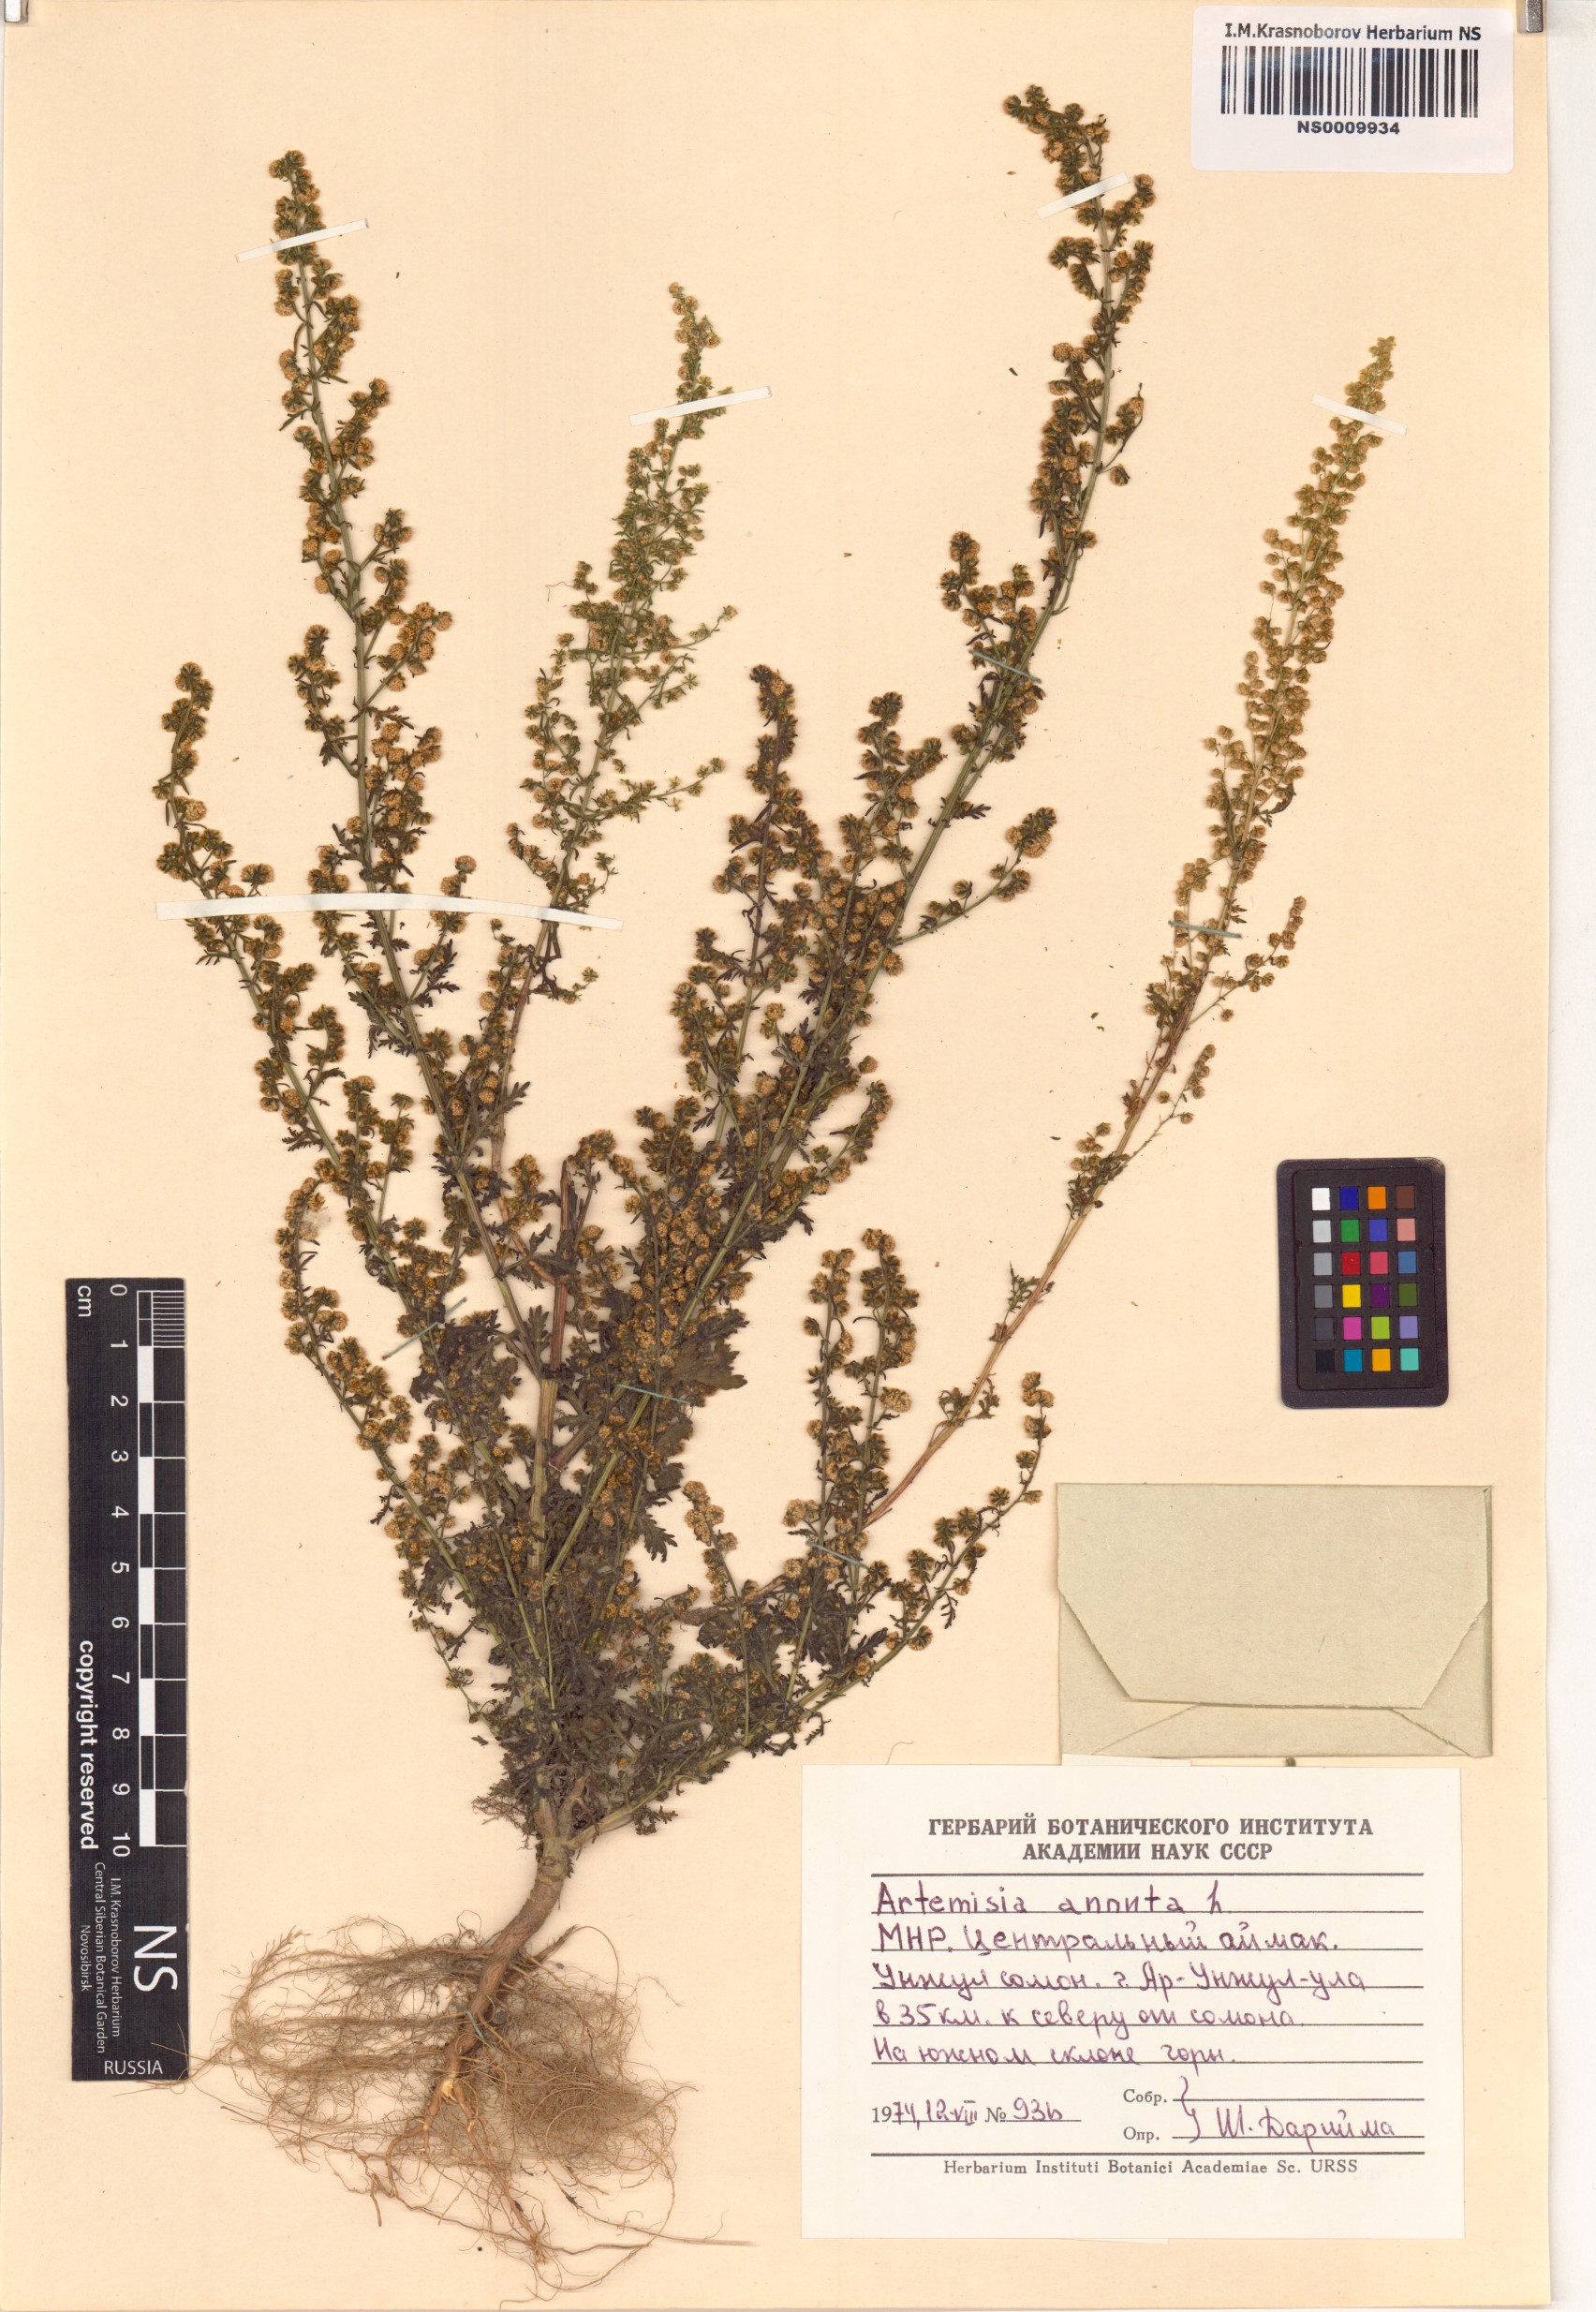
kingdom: Plantae
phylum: Tracheophyta
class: Magnoliopsida
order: Asterales
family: Asteraceae
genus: Artemisia
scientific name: Artemisia annua
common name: Sweet sagewort
